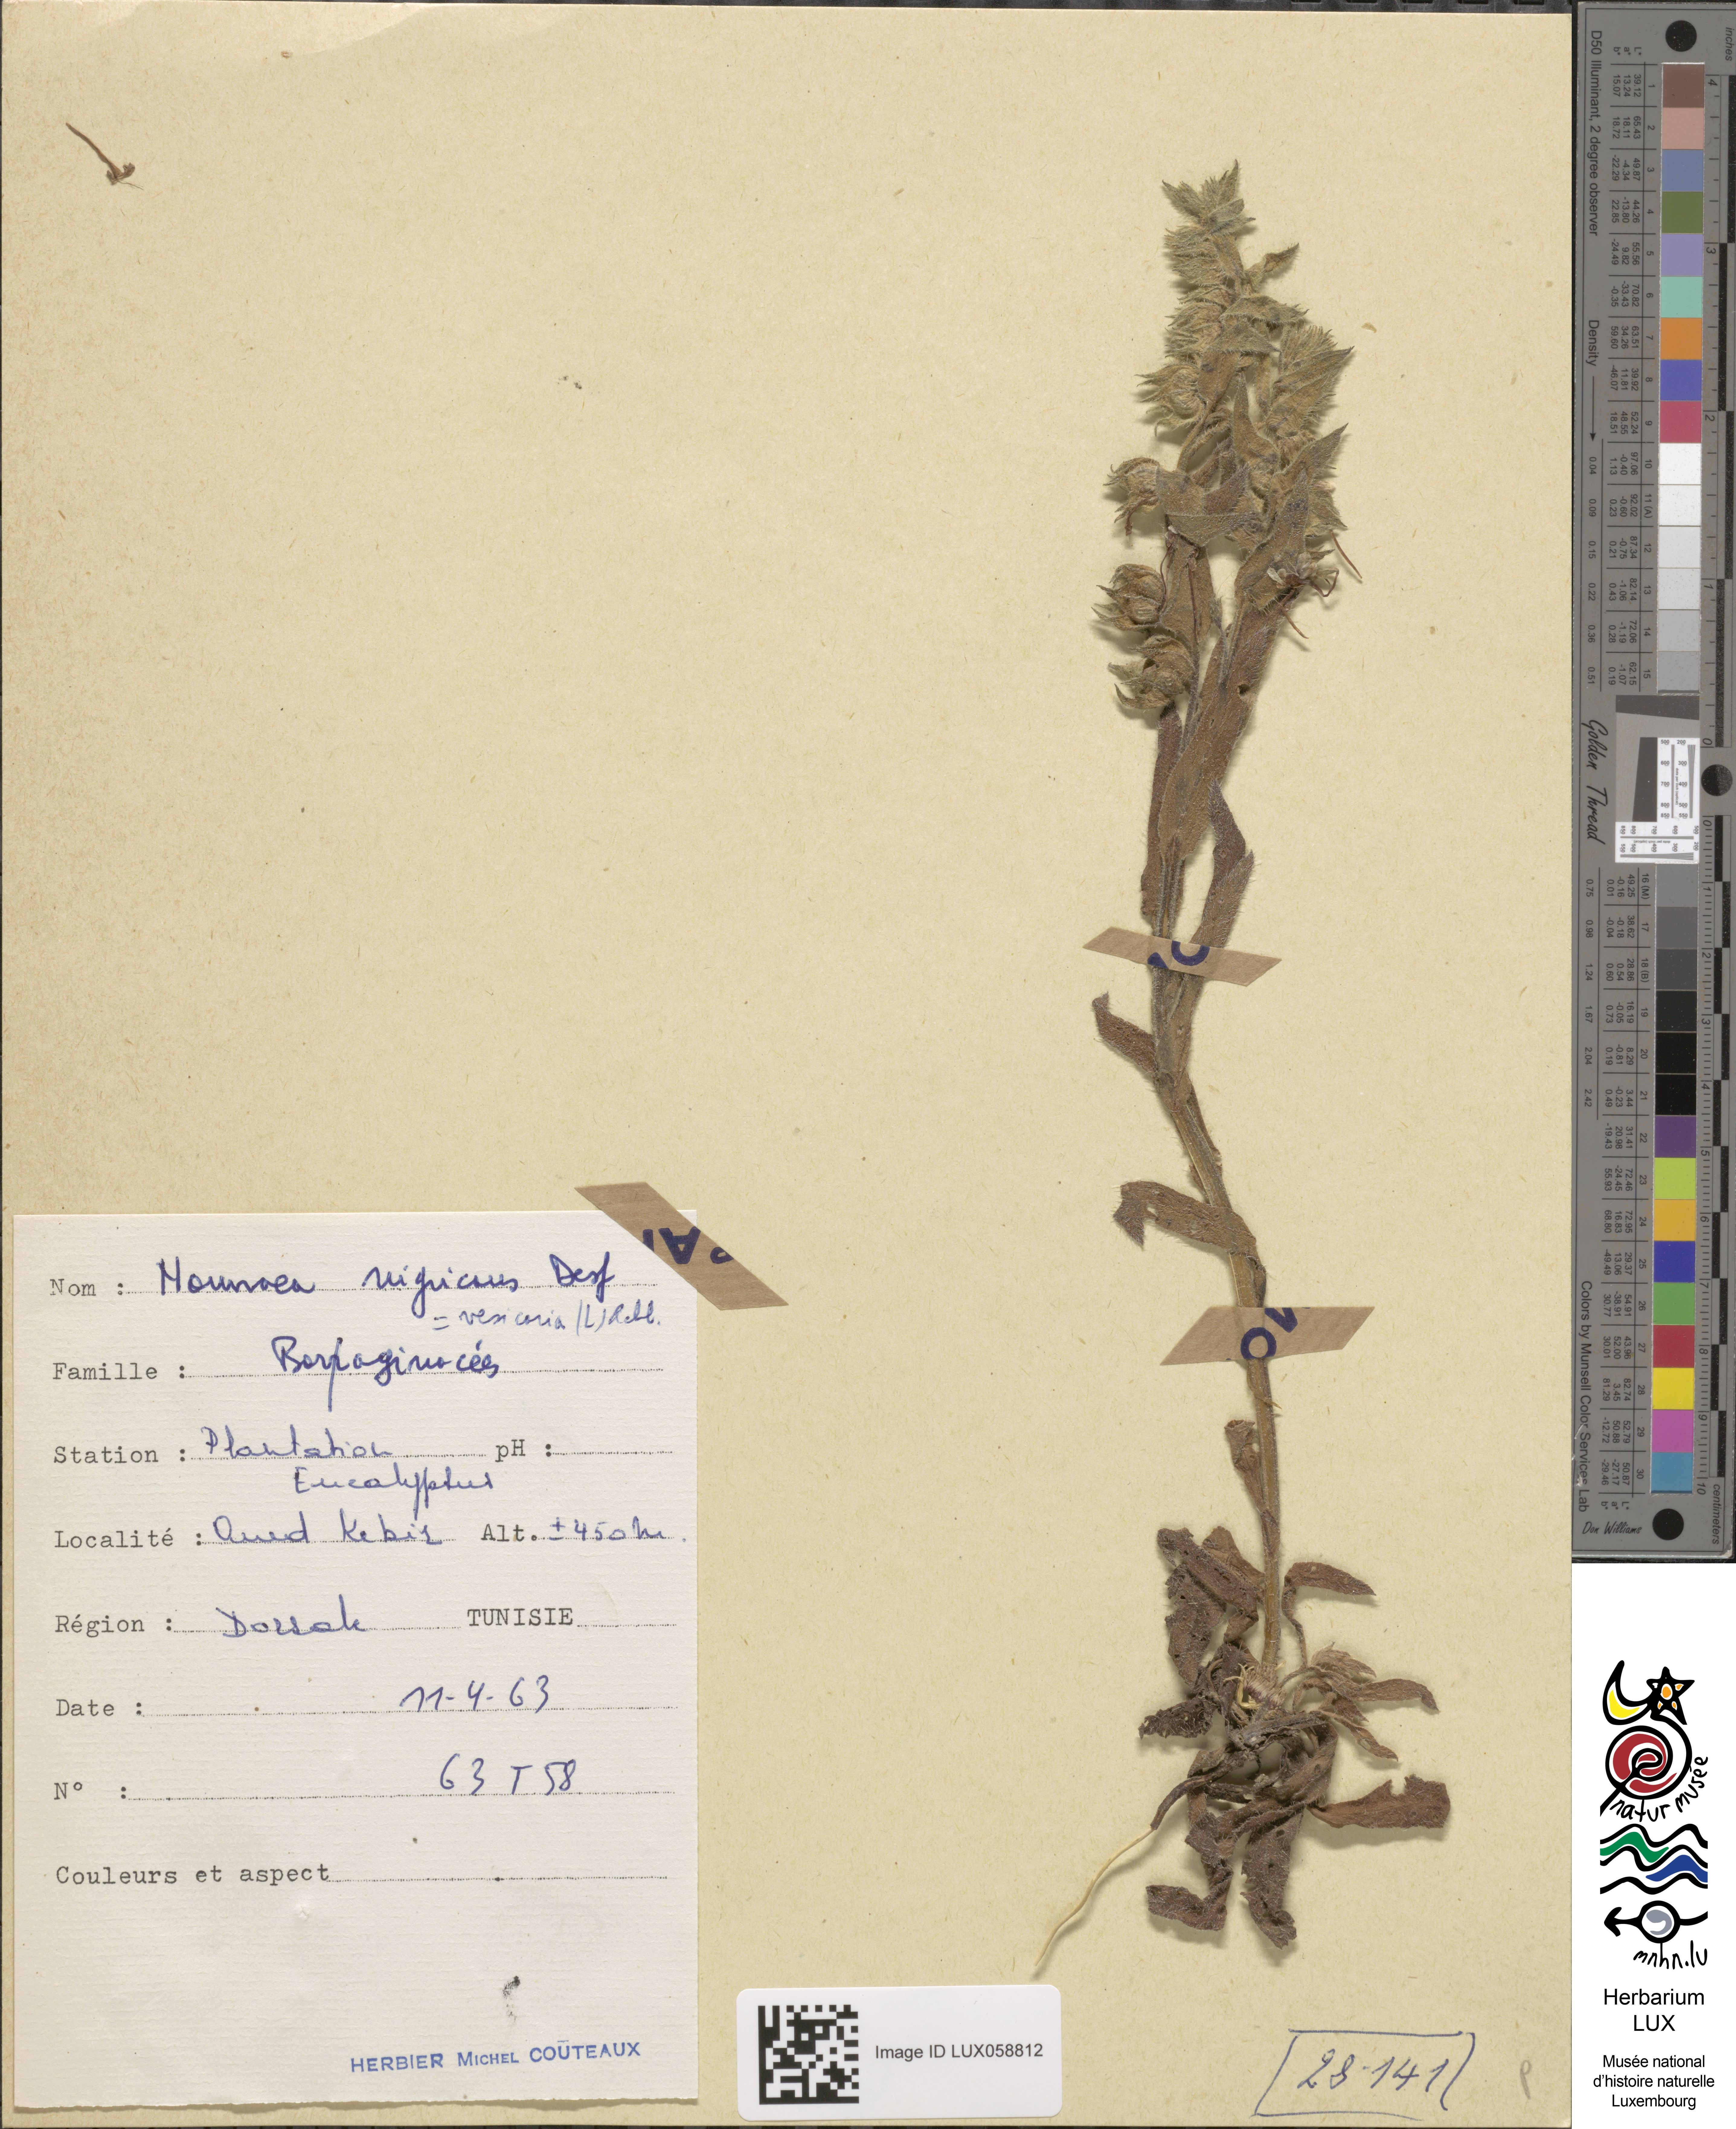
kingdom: Plantae
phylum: Tracheophyta
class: Magnoliopsida
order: Boraginales
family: Boraginaceae
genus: Nonea
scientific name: Nonea vesicaria
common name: Red monkswort
